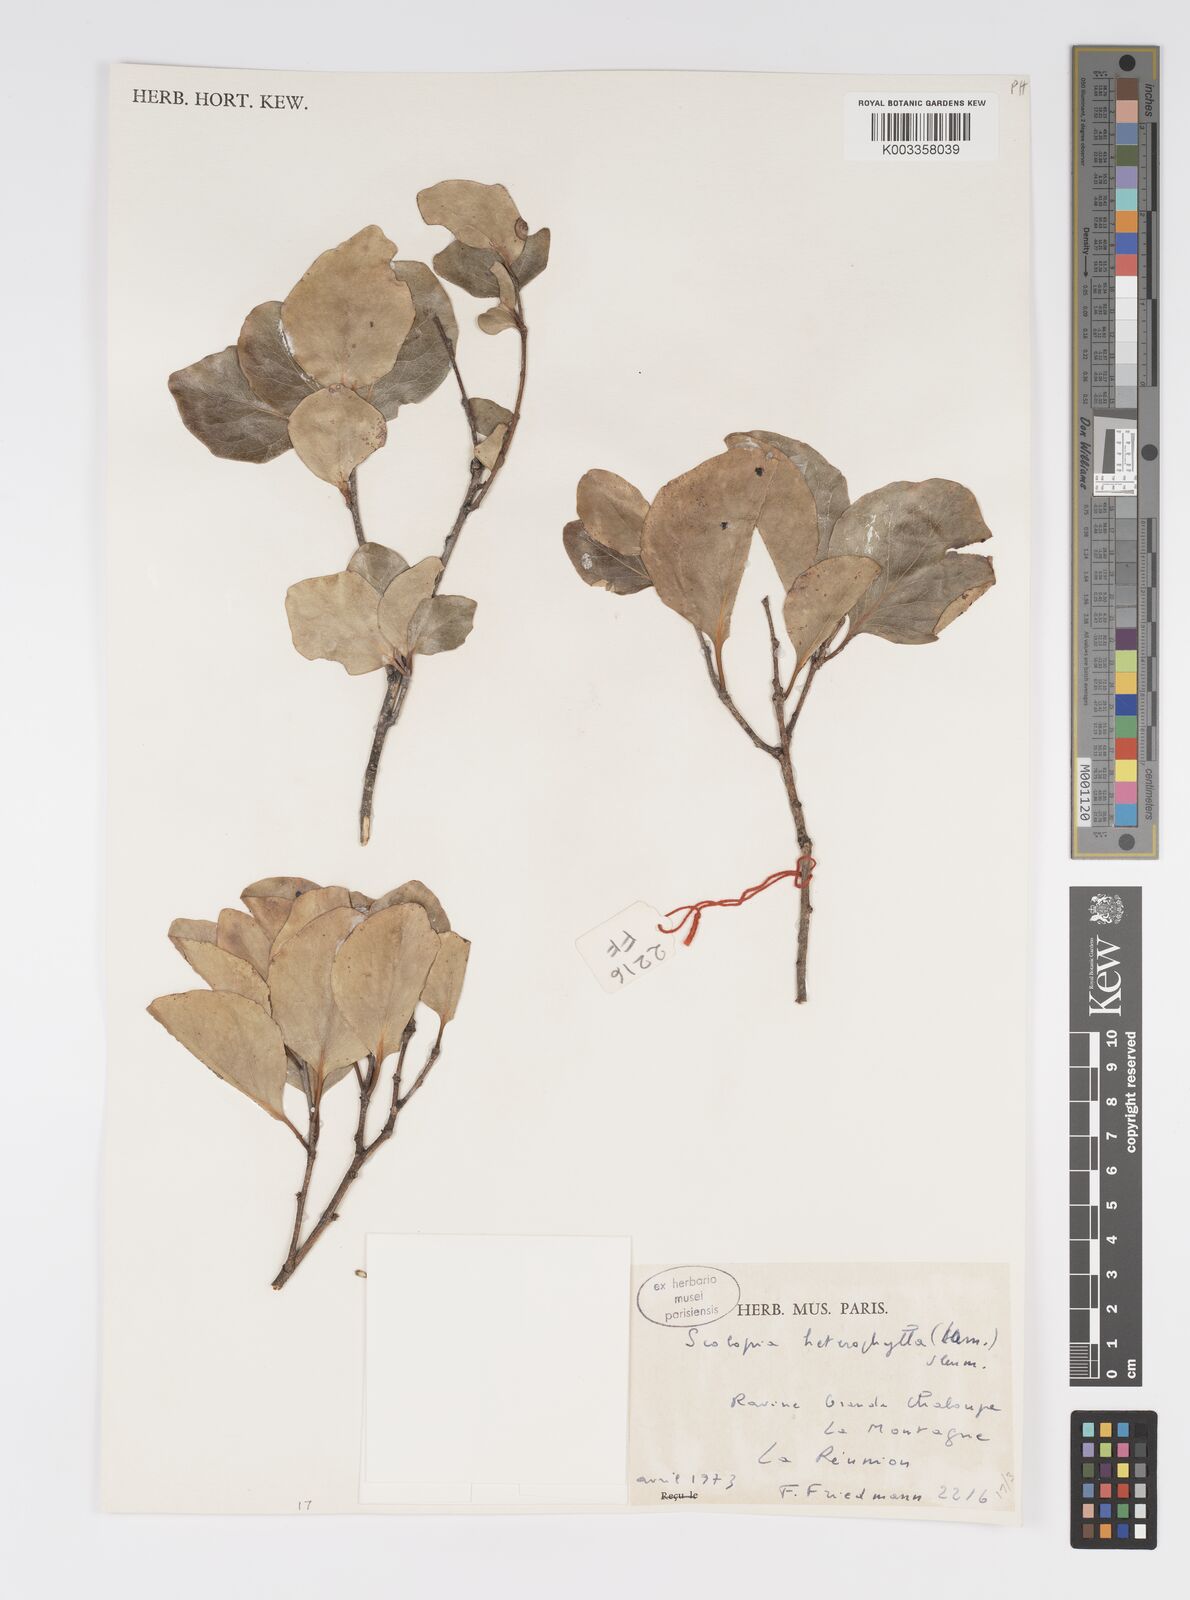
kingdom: Plantae
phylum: Tracheophyta
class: Magnoliopsida
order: Malpighiales
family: Salicaceae
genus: Scolopia
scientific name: Scolopia heterophylla
